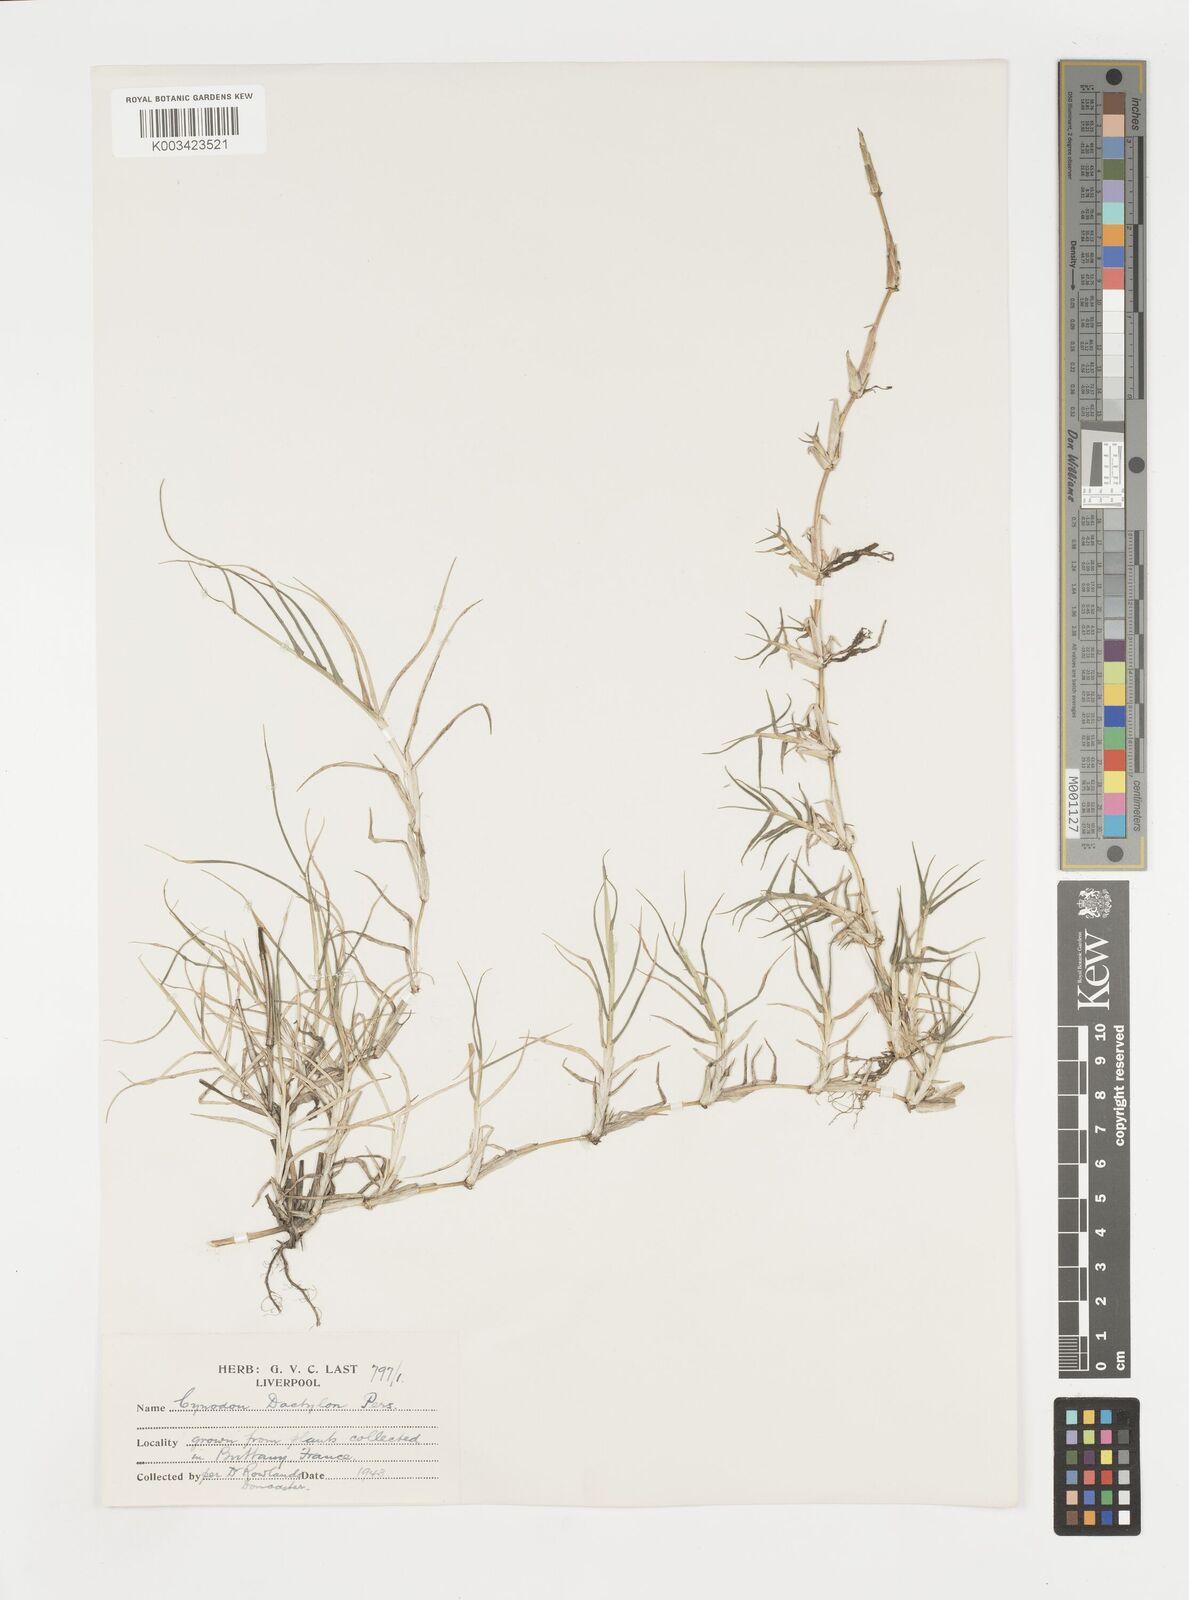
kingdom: Plantae
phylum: Tracheophyta
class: Liliopsida
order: Poales
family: Poaceae
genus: Cynodon
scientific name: Cynodon dactylon
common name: Bermuda grass
